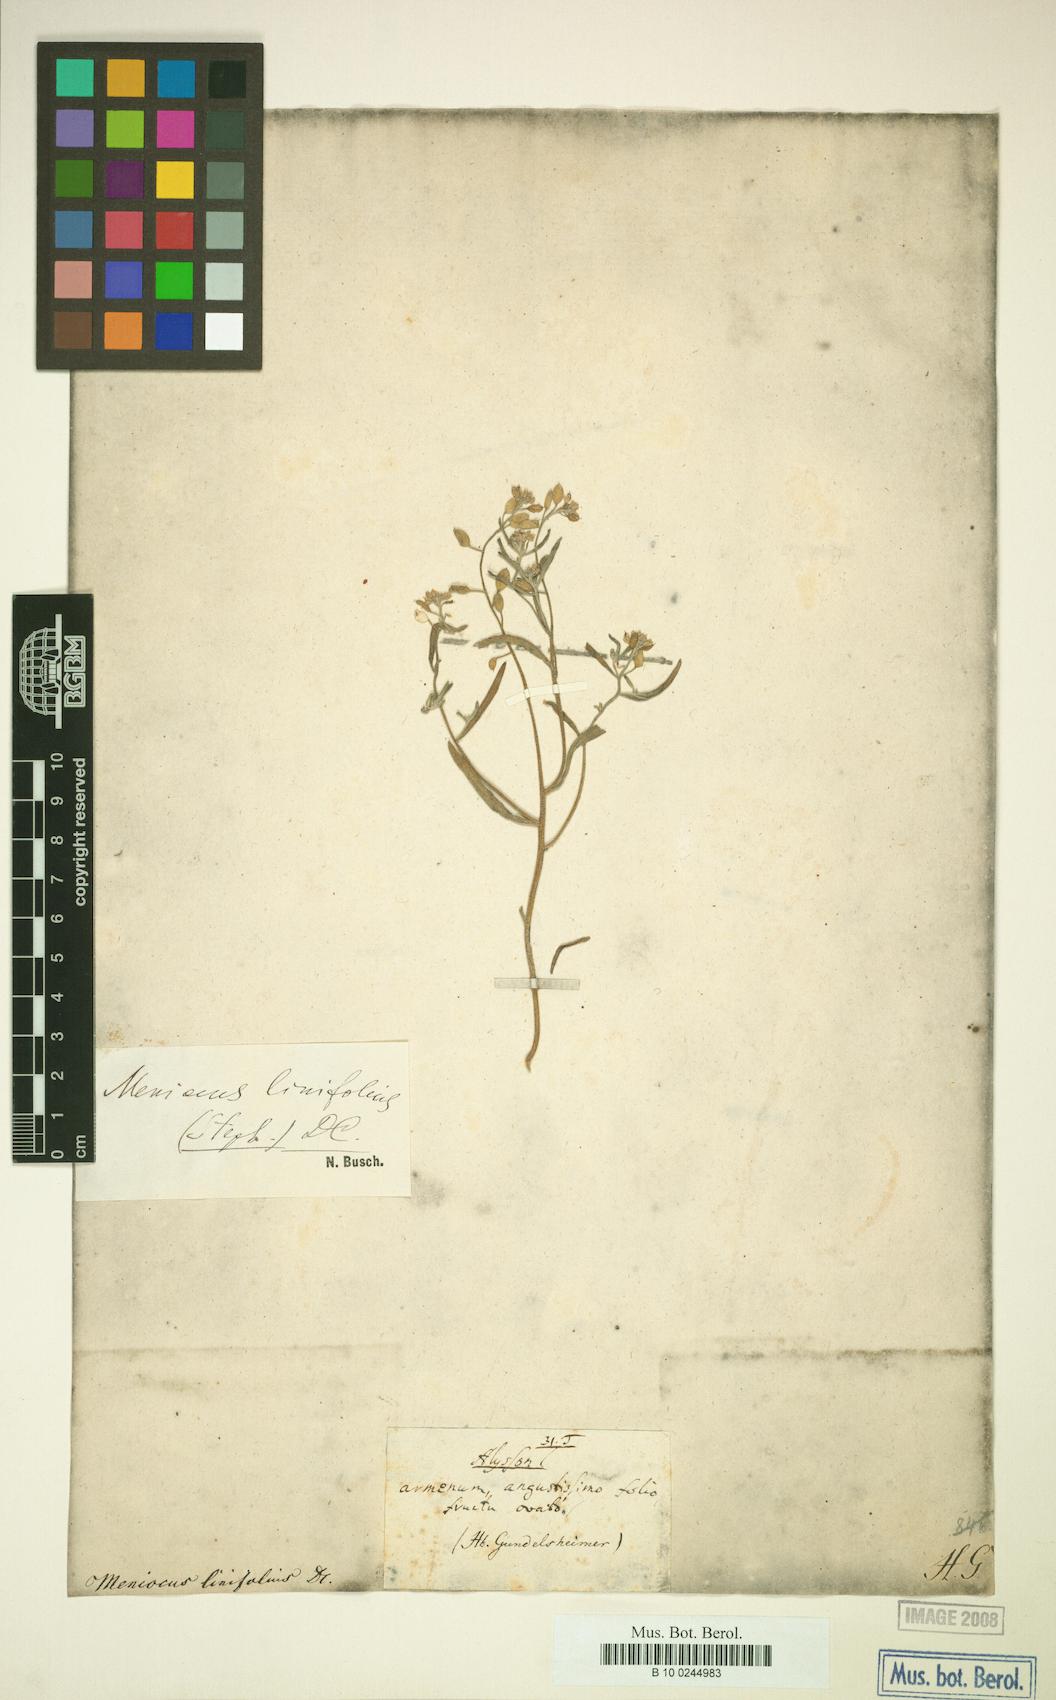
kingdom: Plantae
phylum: Tracheophyta
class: Magnoliopsida
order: Brassicales
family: Brassicaceae
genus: Meniocus
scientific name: Meniocus linifolius
